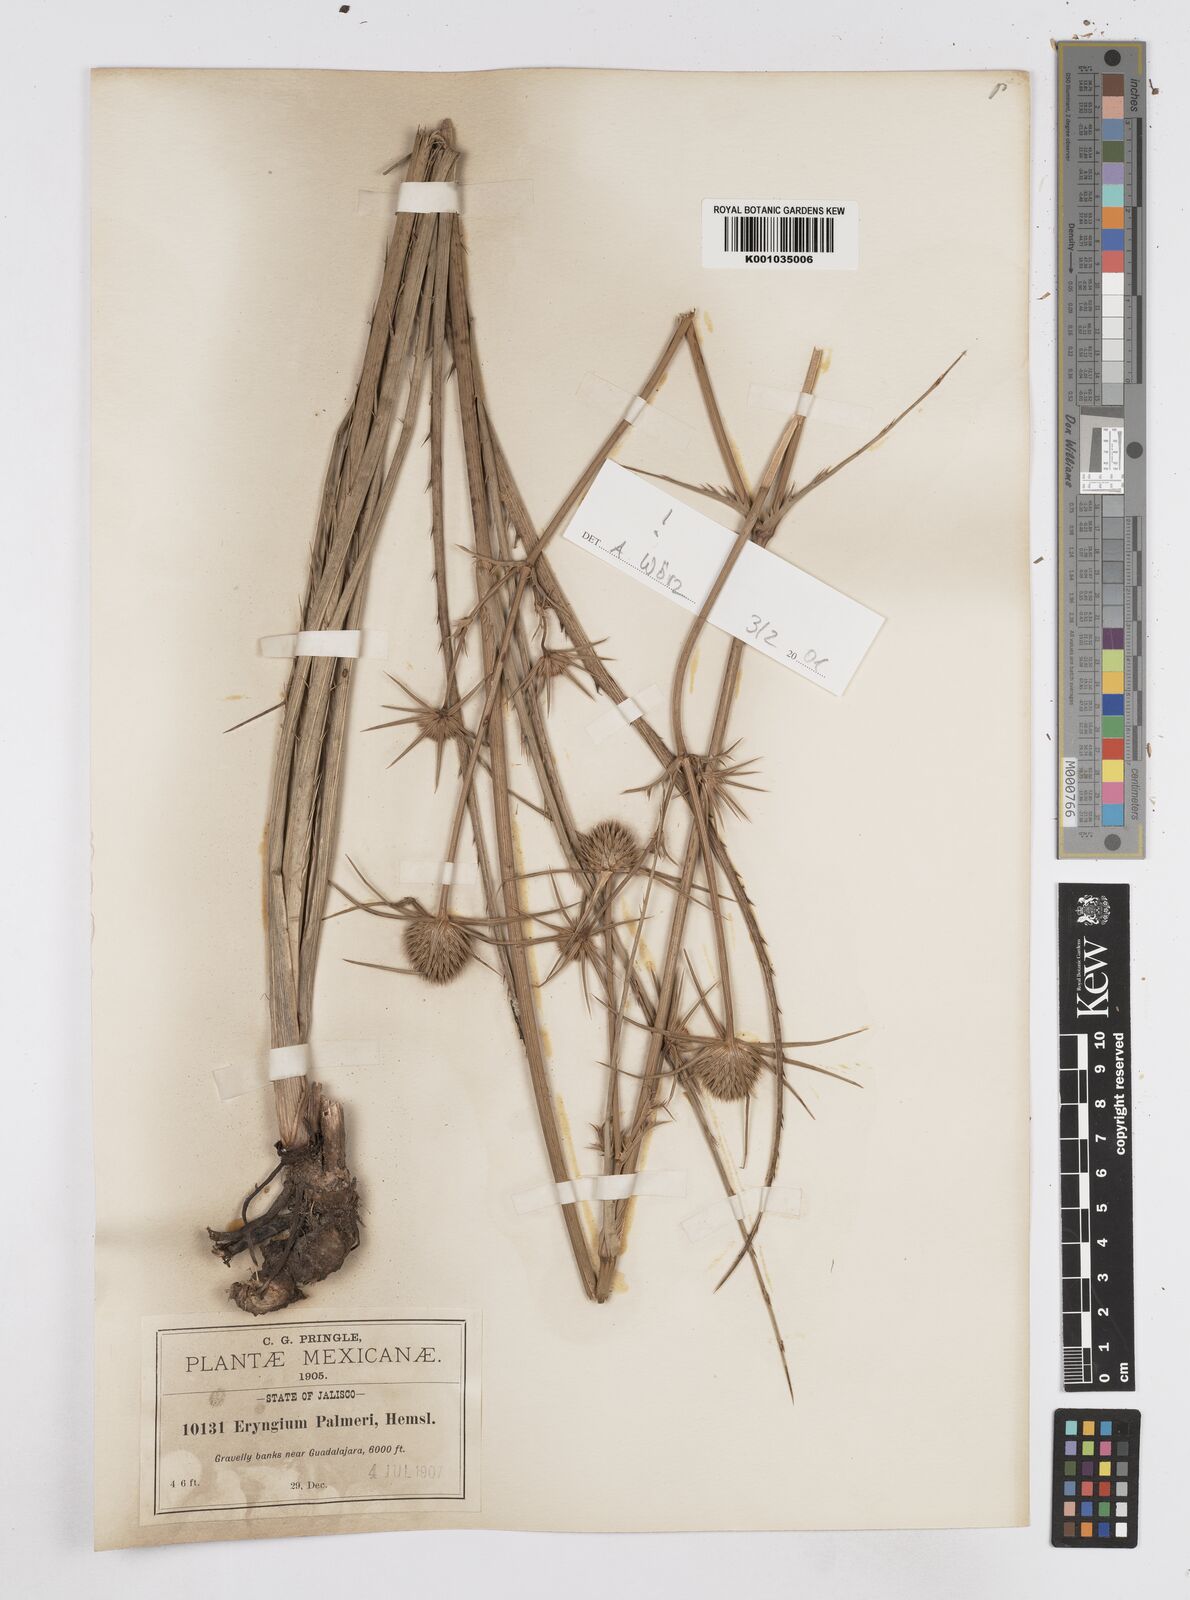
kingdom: Plantae
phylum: Tracheophyta
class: Magnoliopsida
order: Apiales
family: Apiaceae
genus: Eryngium
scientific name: Eryngium palmeri
